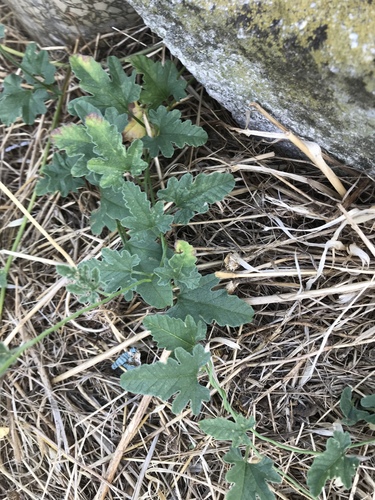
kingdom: Plantae
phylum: Tracheophyta
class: Magnoliopsida
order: Solanales
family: Convolvulaceae
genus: Convolvulus
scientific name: Convolvulus althaeoides
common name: Mallow bindweed
